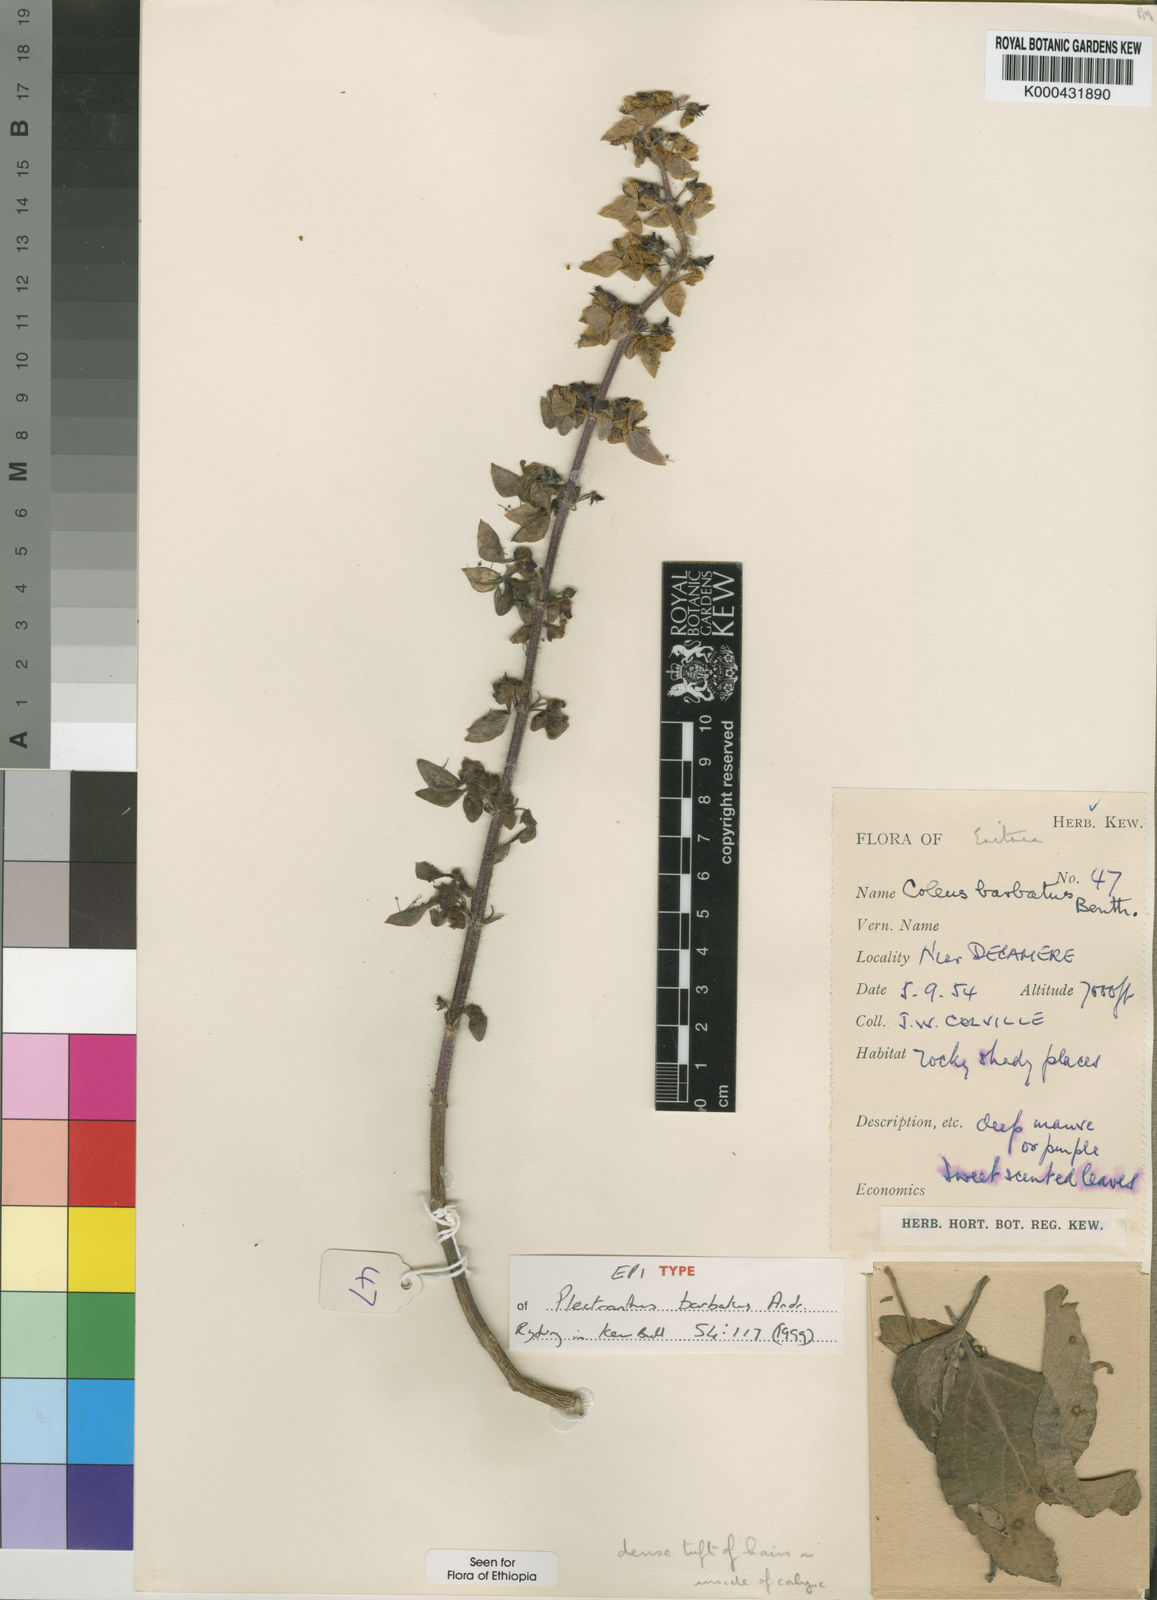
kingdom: Plantae
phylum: Tracheophyta
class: Magnoliopsida
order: Lamiales
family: Lamiaceae
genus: Coleus
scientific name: Coleus barbatus
